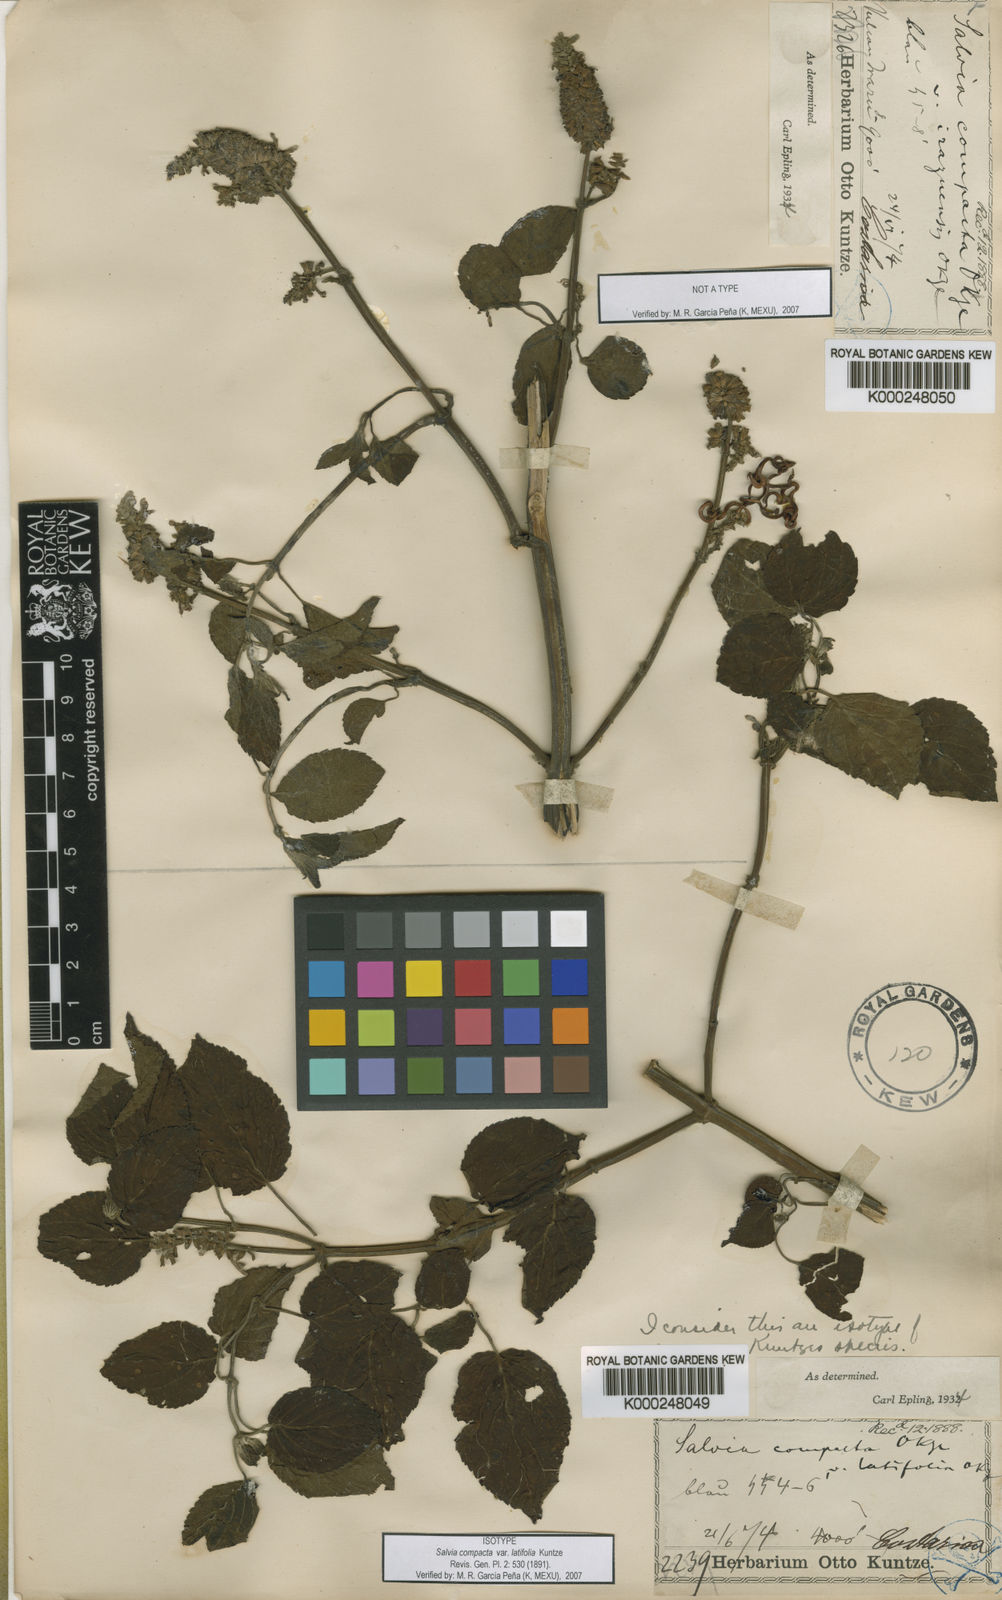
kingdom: Plantae
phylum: Tracheophyta
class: Magnoliopsida
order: Lamiales
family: Lamiaceae
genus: Salvia
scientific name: Salvia polystachia
